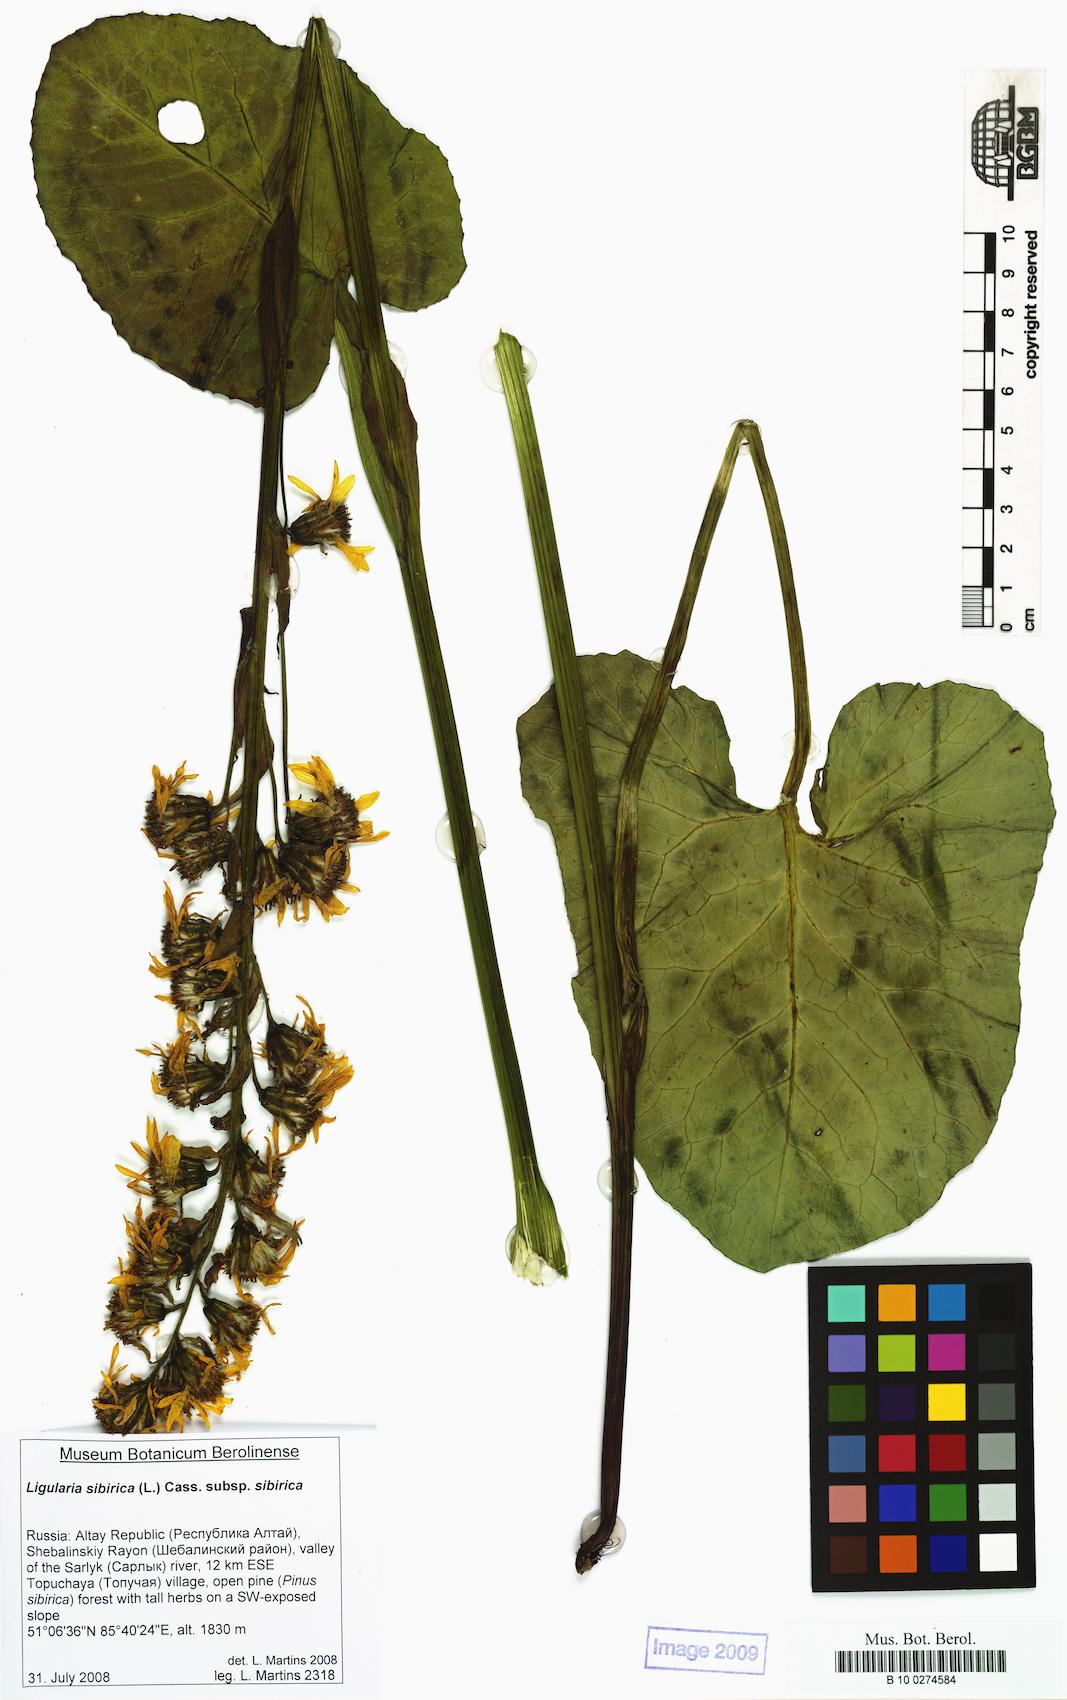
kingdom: Plantae
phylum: Tracheophyta
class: Magnoliopsida
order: Asterales
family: Asteraceae
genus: Ligularia
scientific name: Ligularia sibirica
